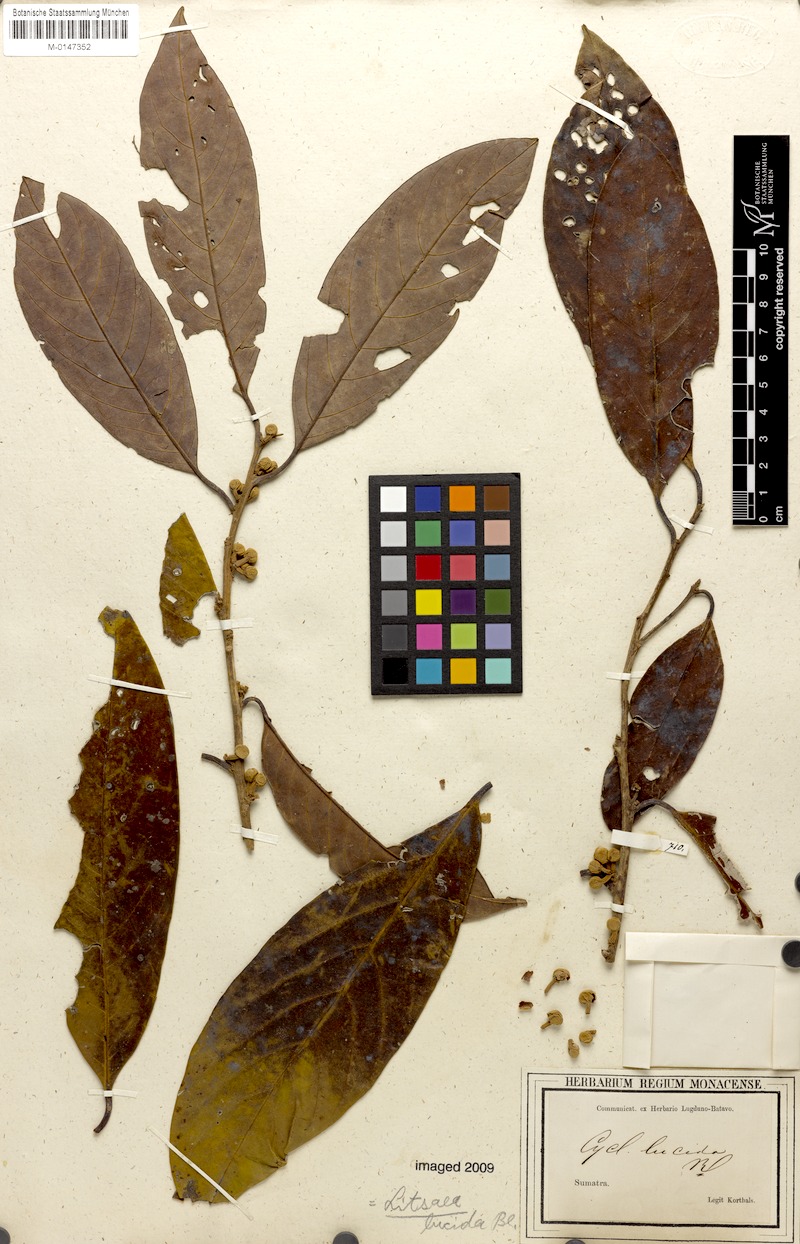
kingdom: Plantae
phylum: Tracheophyta
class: Magnoliopsida
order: Laurales
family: Lauraceae
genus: Lindera
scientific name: Lindera lucida
